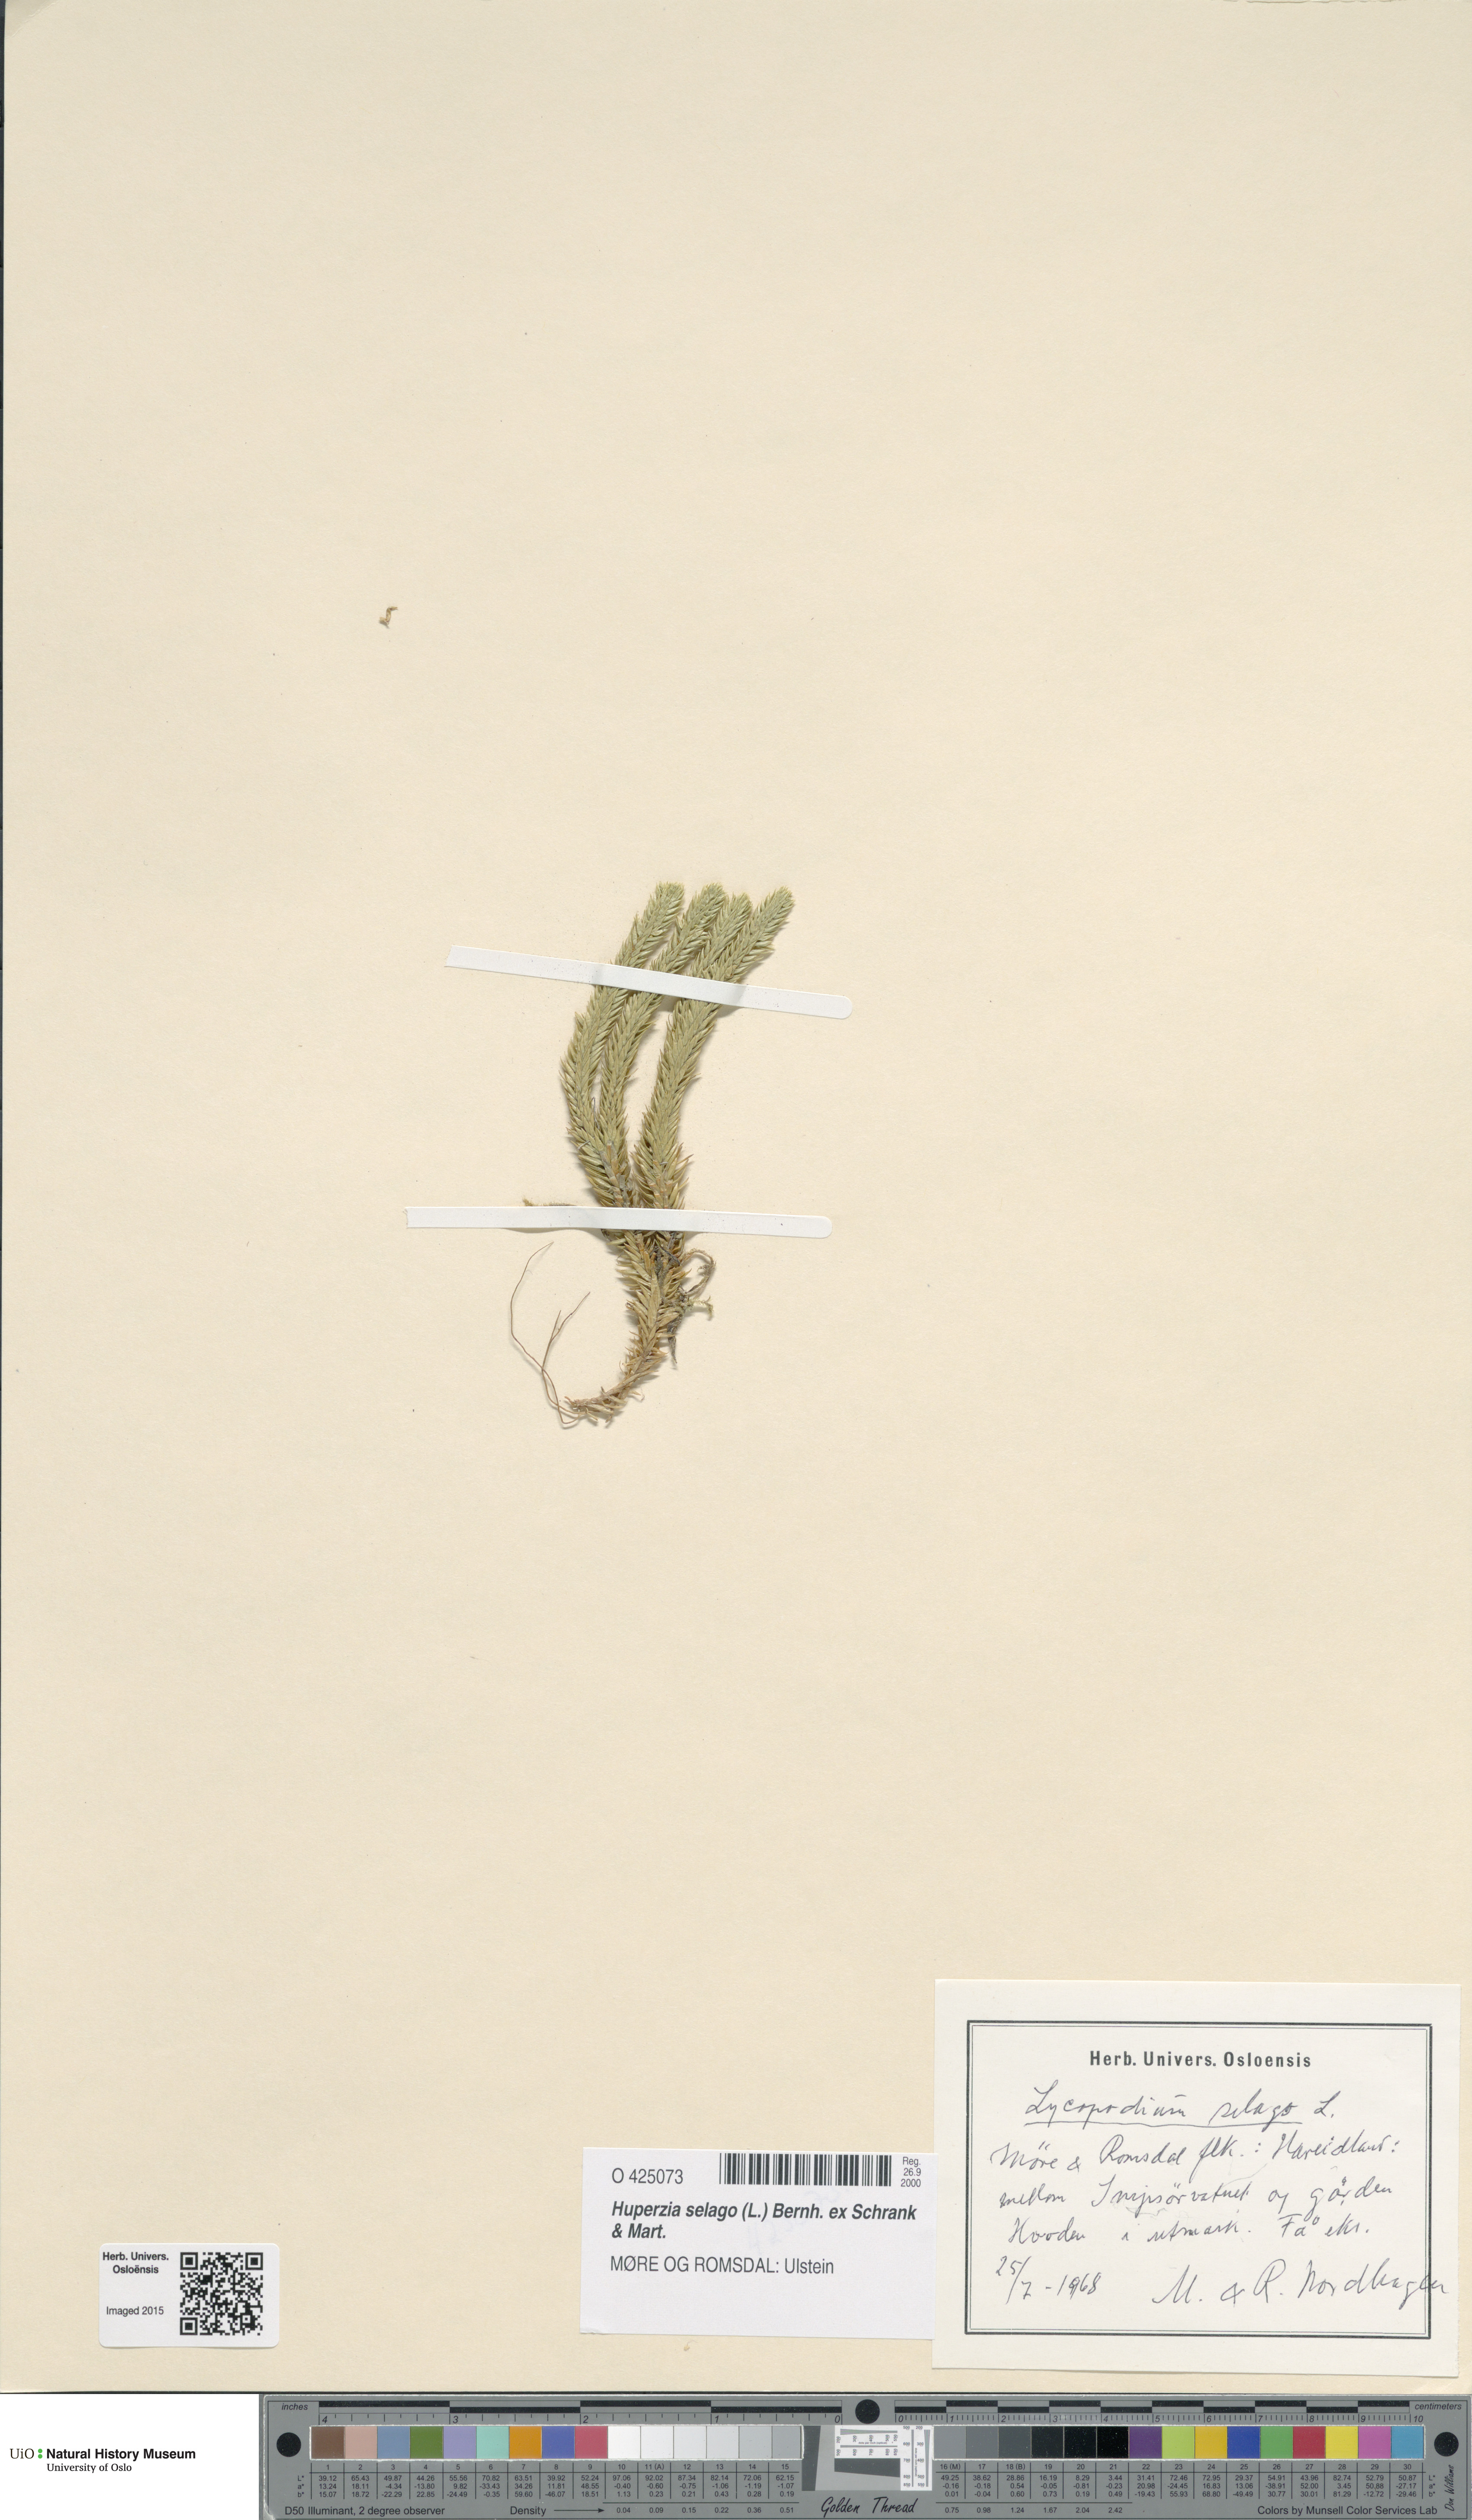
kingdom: Plantae
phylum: Tracheophyta
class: Lycopodiopsida
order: Lycopodiales
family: Lycopodiaceae
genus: Huperzia
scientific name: Huperzia selago
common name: Northern firmoss
